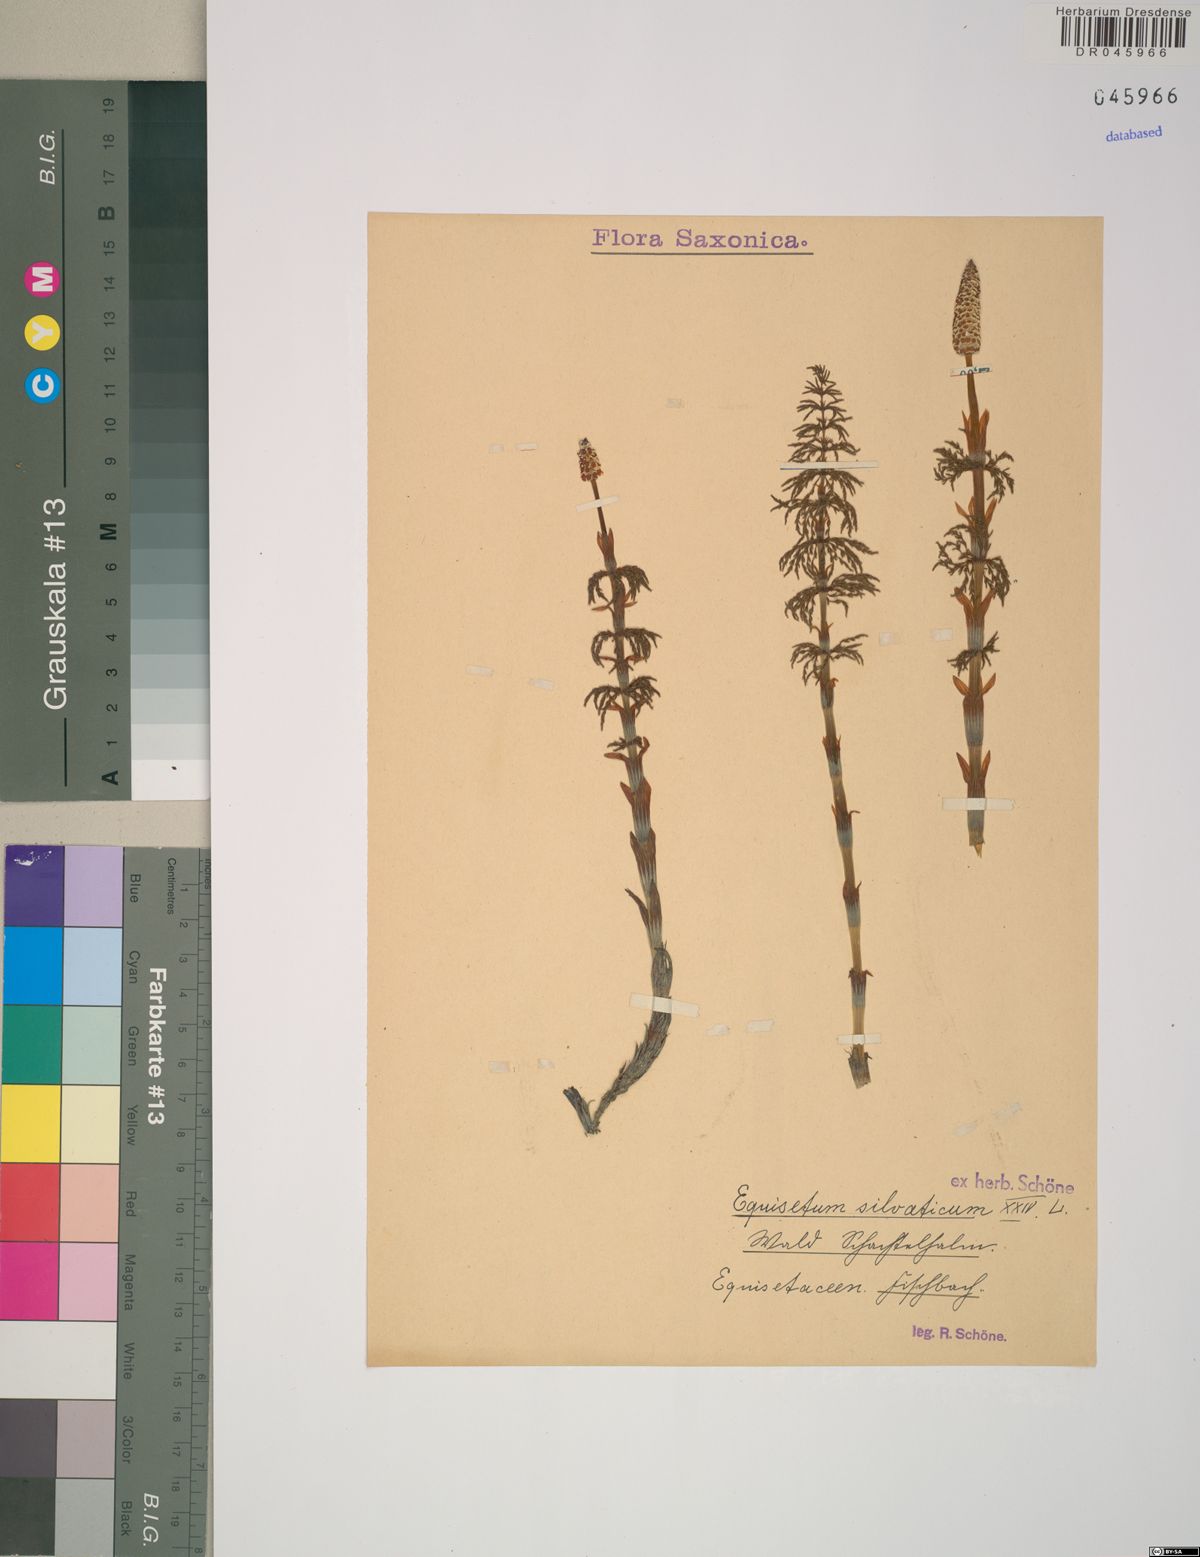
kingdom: Plantae
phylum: Tracheophyta
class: Polypodiopsida
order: Equisetales
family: Equisetaceae
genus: Equisetum
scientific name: Equisetum sylvaticum
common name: Wood horsetail
